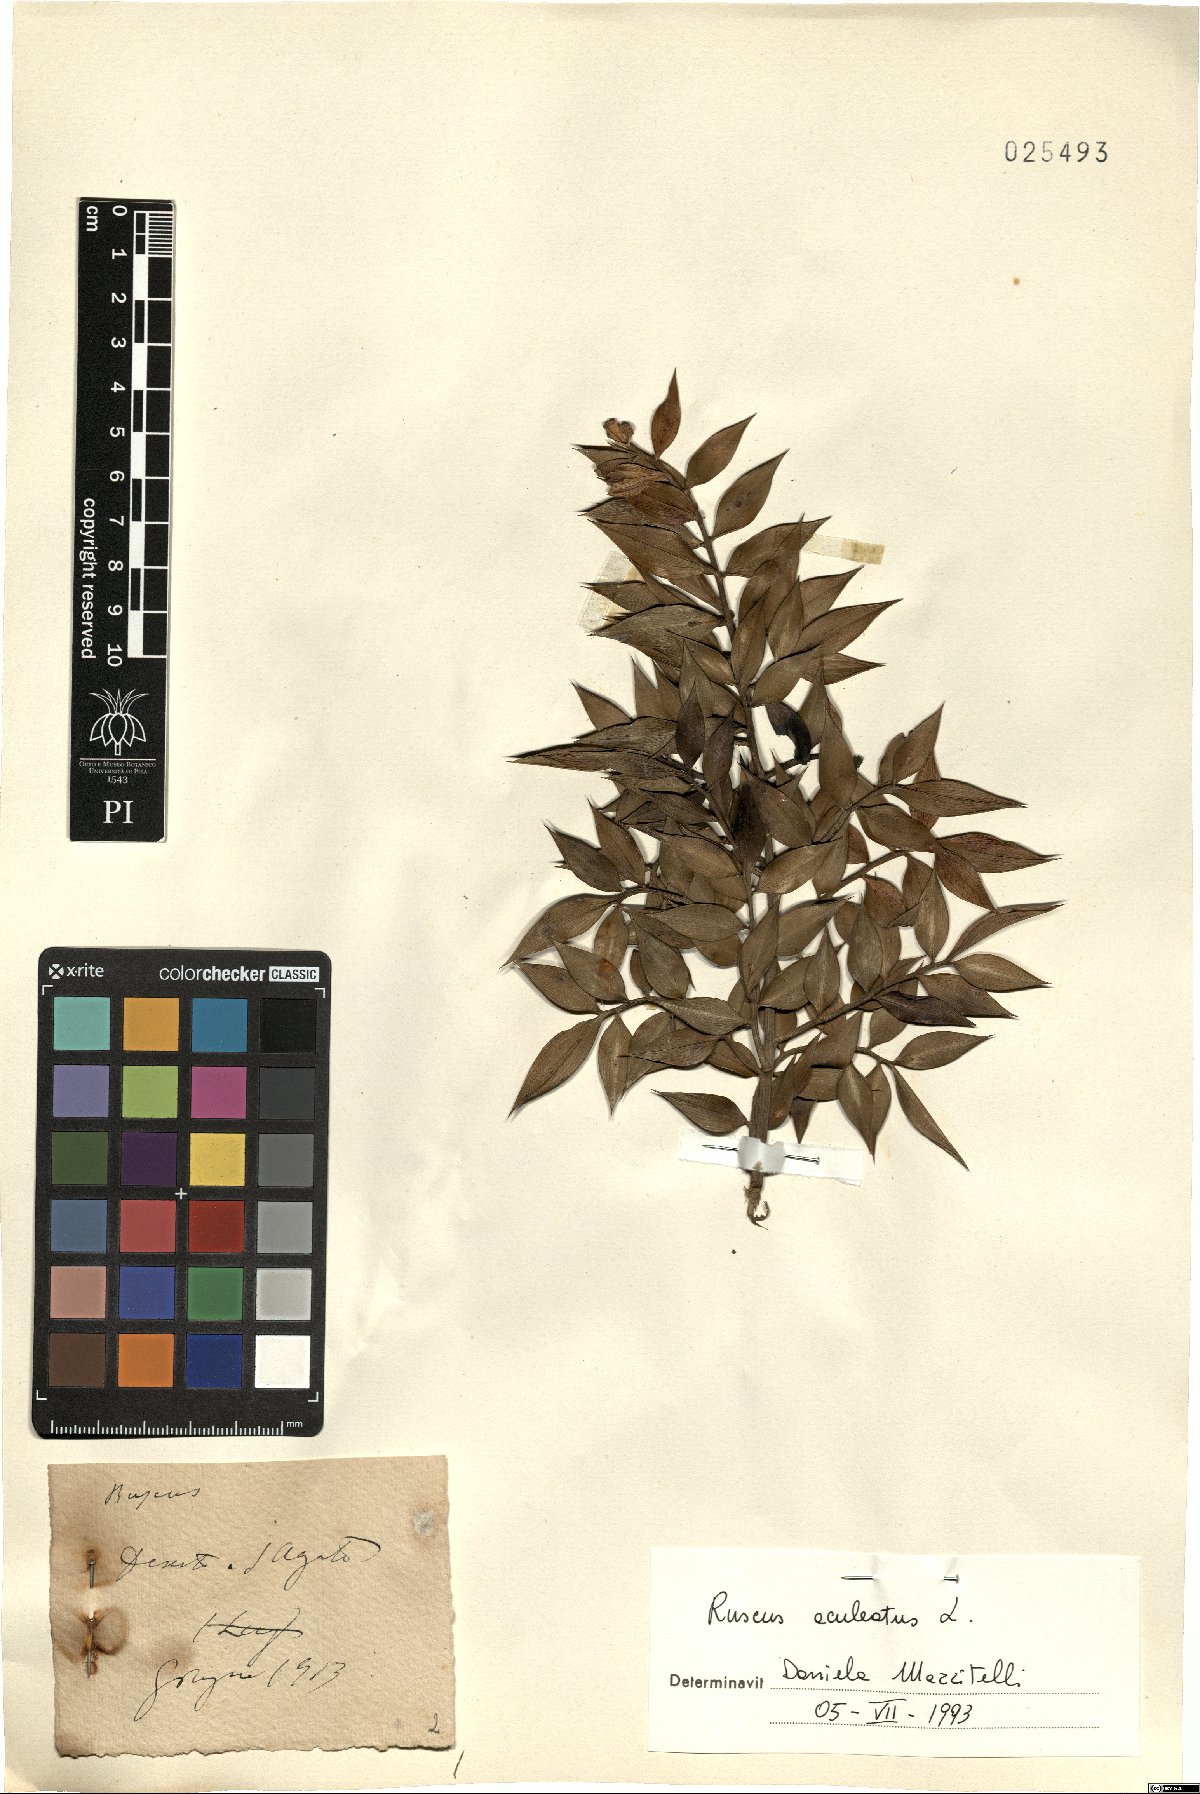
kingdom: Plantae
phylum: Tracheophyta
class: Liliopsida
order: Asparagales
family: Asparagaceae
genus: Ruscus
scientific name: Ruscus aculeatus
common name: Butcher's-broom
